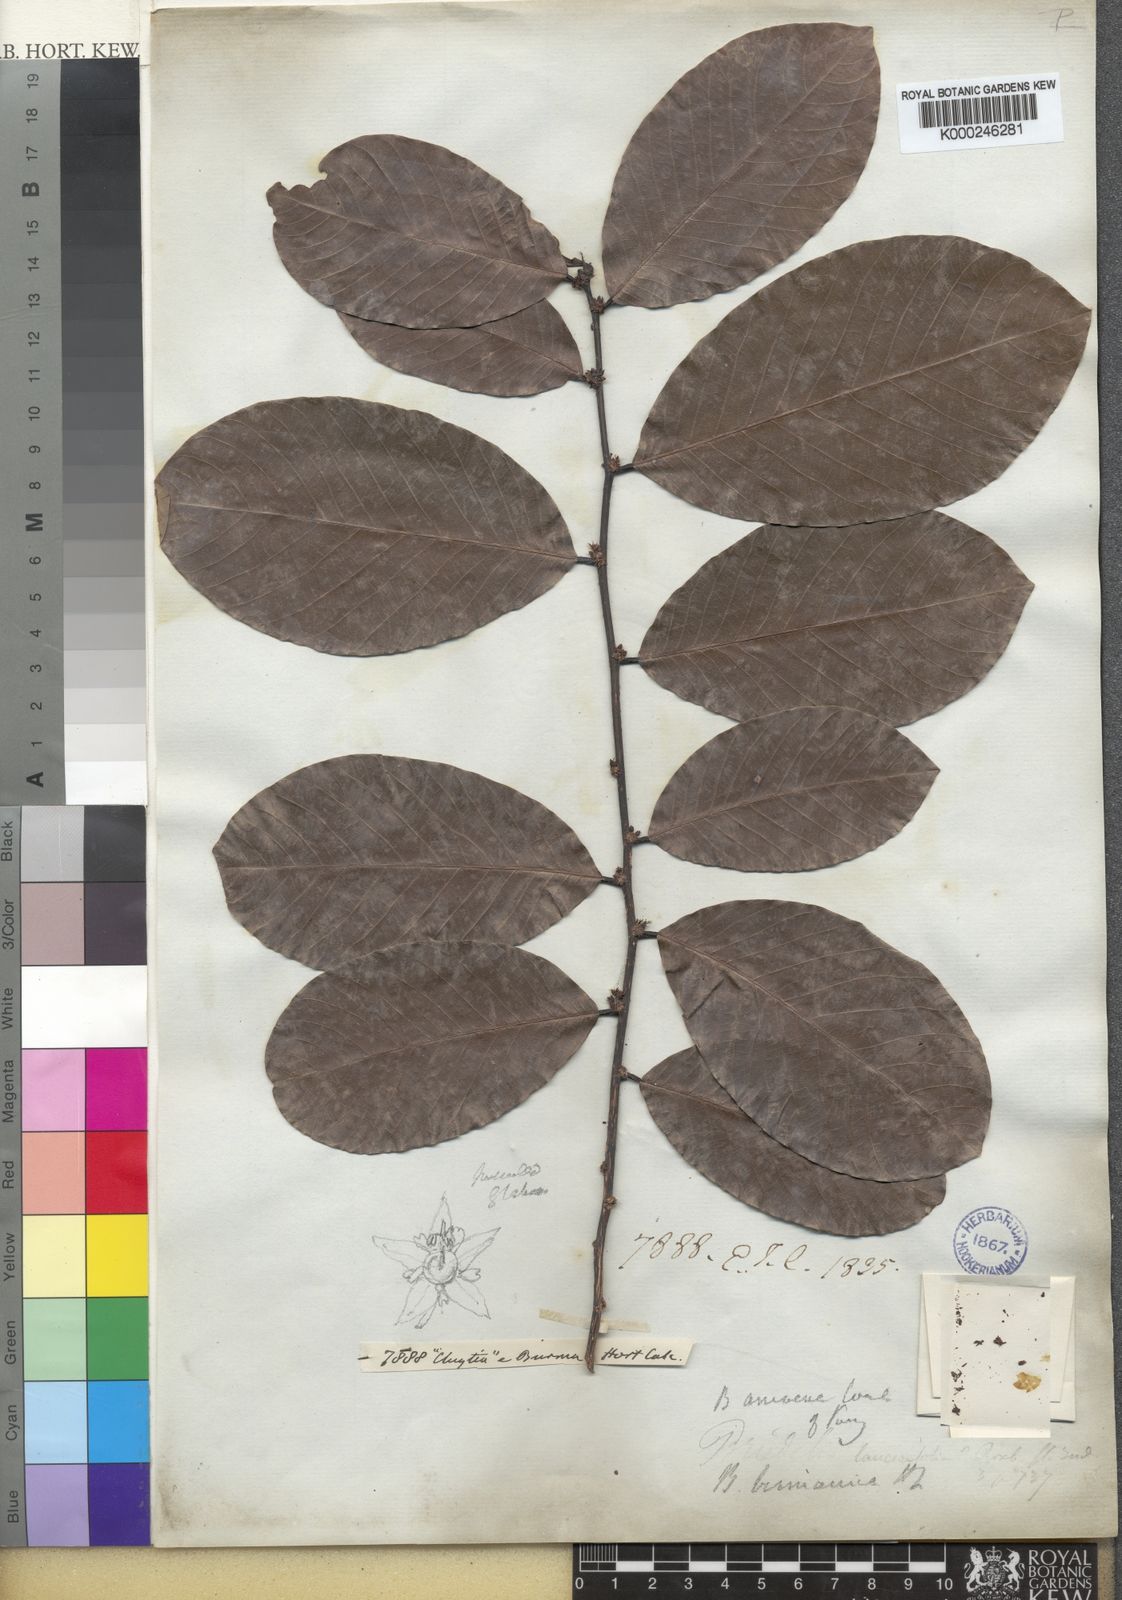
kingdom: Plantae
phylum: Tracheophyta
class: Magnoliopsida
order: Malpighiales
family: Phyllanthaceae
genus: Bridelia
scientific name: Bridelia ovata
